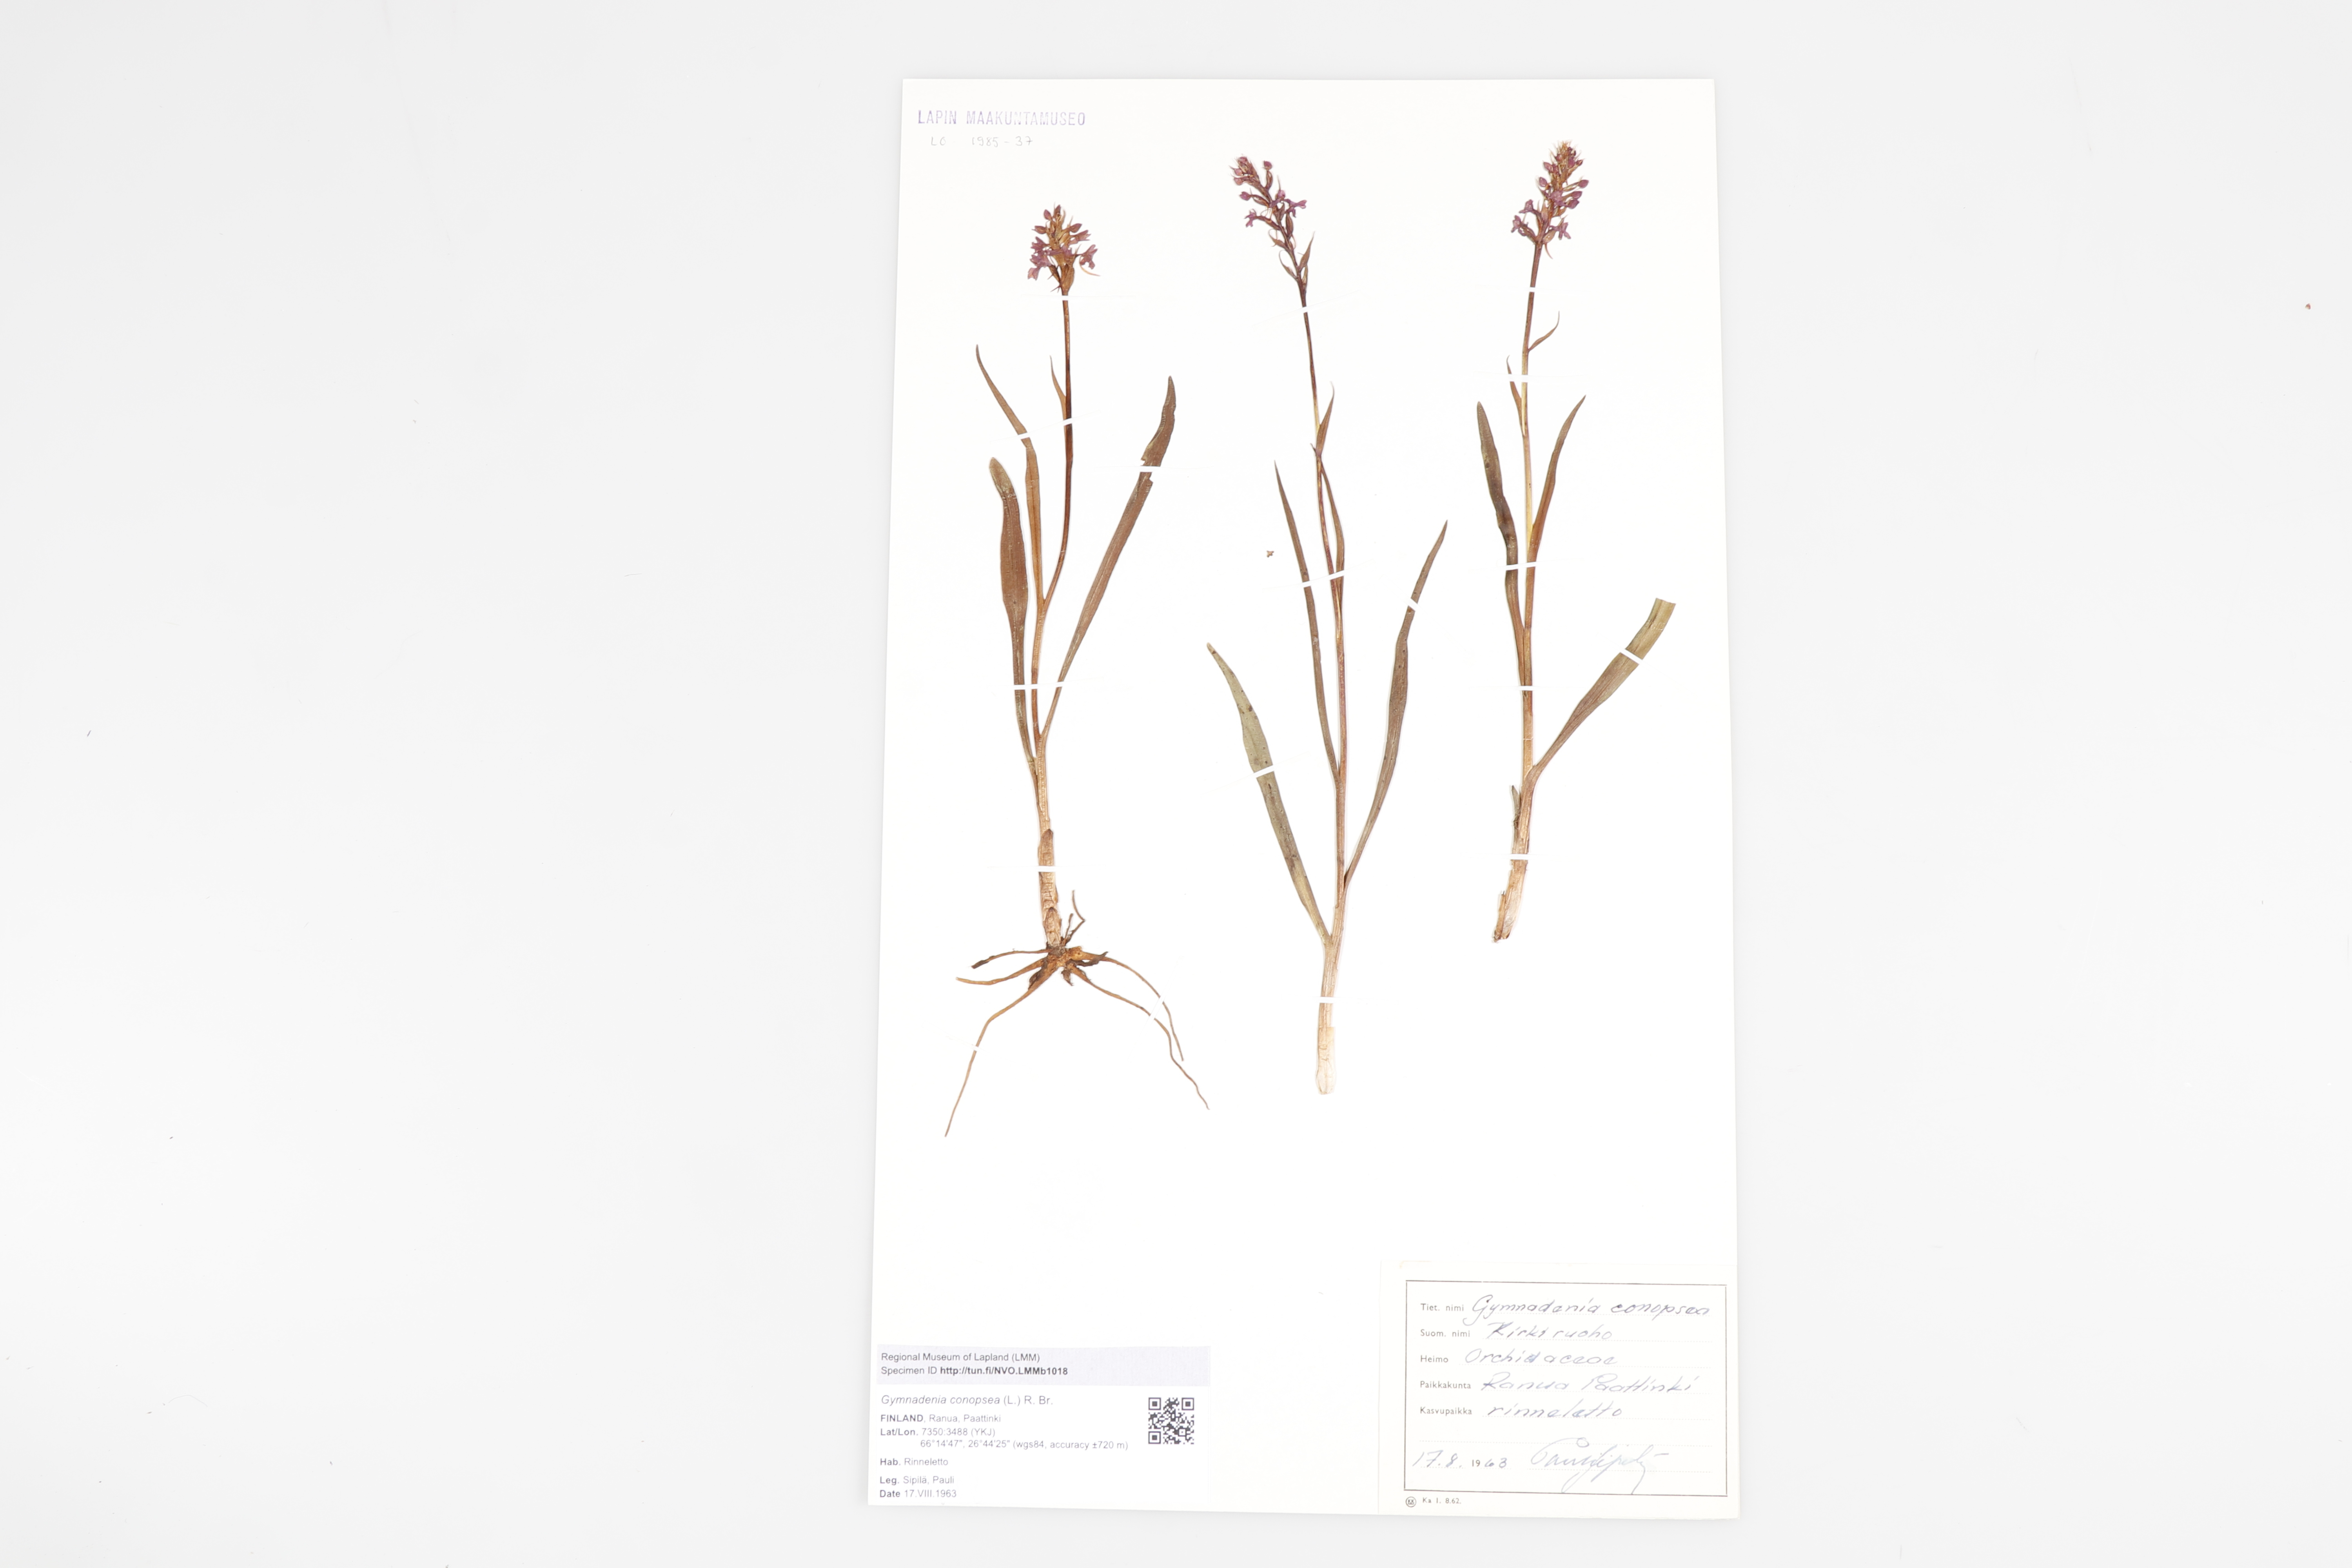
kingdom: Plantae
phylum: Tracheophyta
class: Liliopsida
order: Asparagales
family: Orchidaceae
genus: Gymnadenia
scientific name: Gymnadenia conopsea
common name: Fragrant orchid
